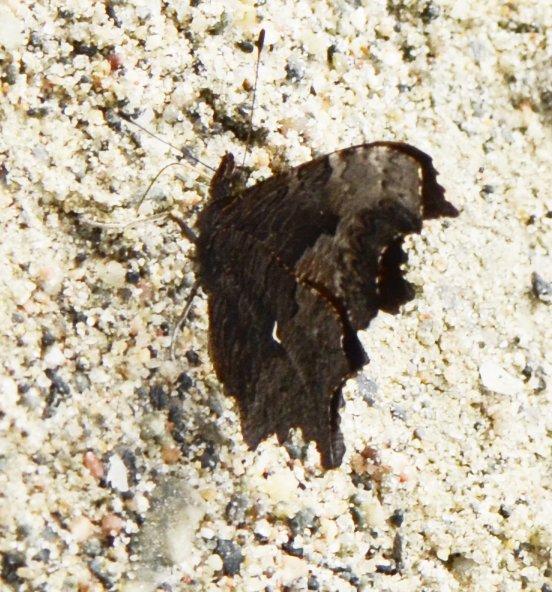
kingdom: Animalia
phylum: Arthropoda
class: Insecta
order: Lepidoptera
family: Nymphalidae
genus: Polygonia
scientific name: Polygonia gracilis
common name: Hoary Comma
